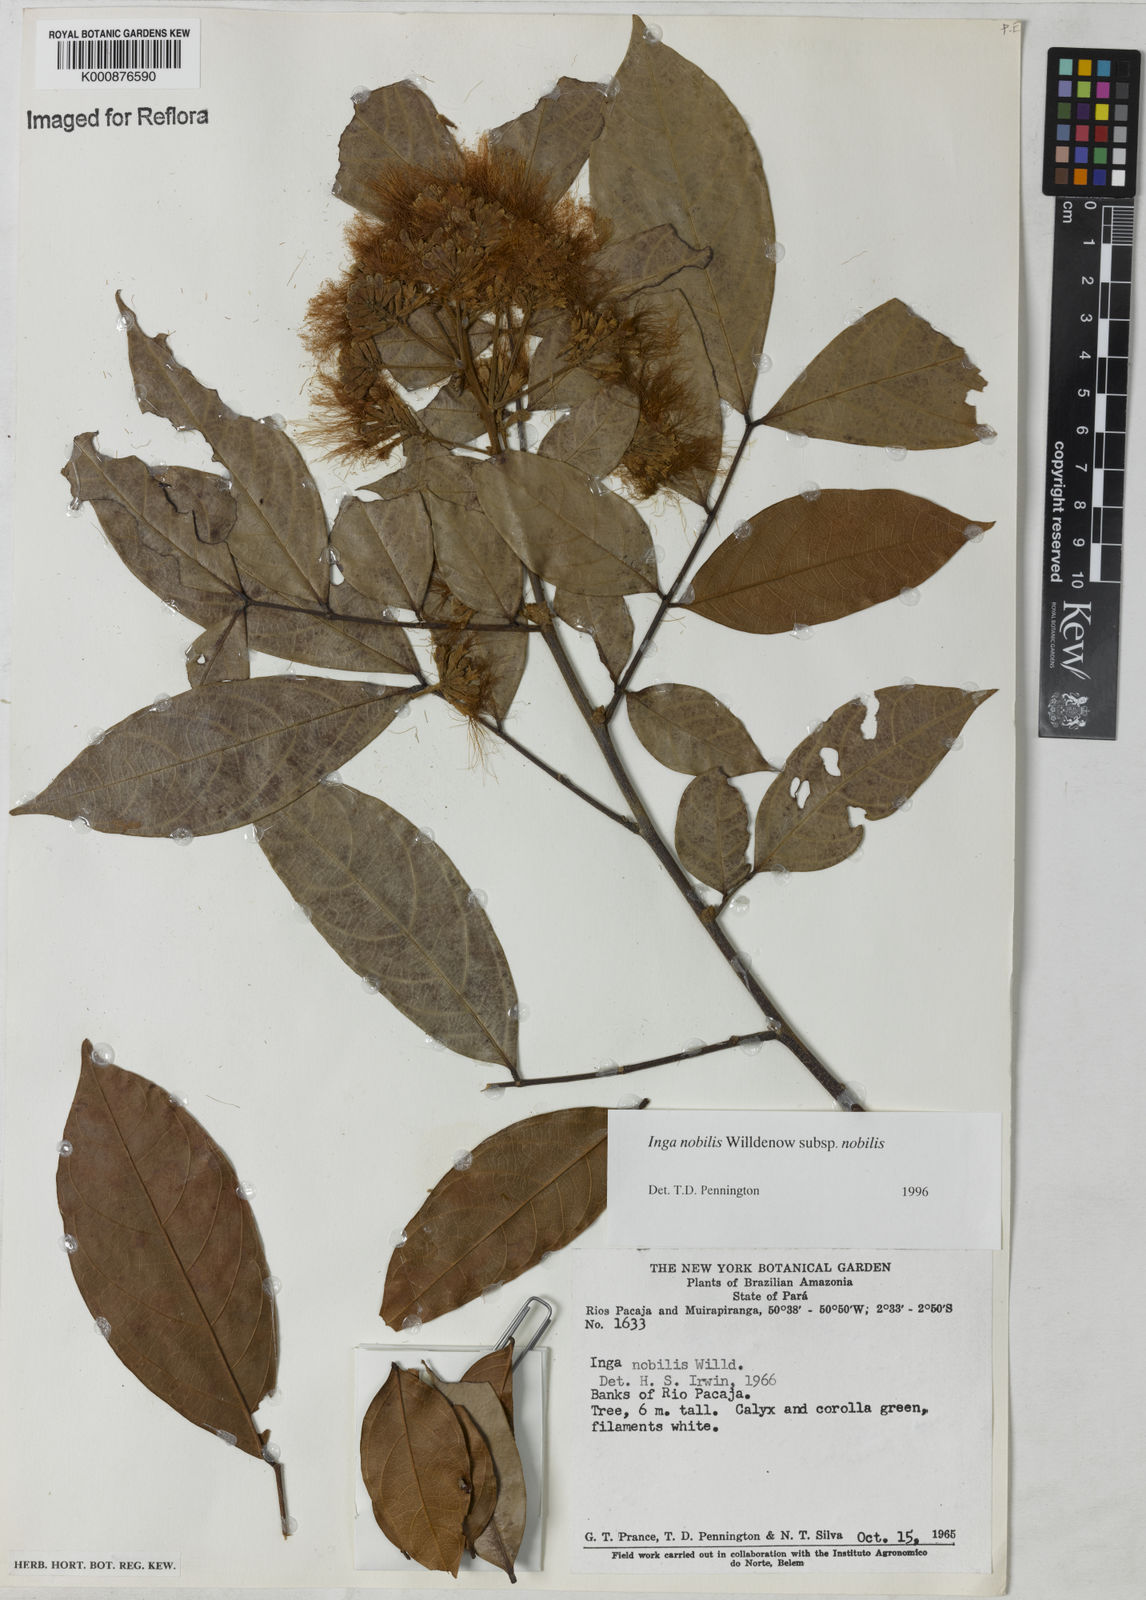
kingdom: Plantae
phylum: Tracheophyta
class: Magnoliopsida
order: Fabales
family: Fabaceae
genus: Inga
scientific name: Inga nobilis
